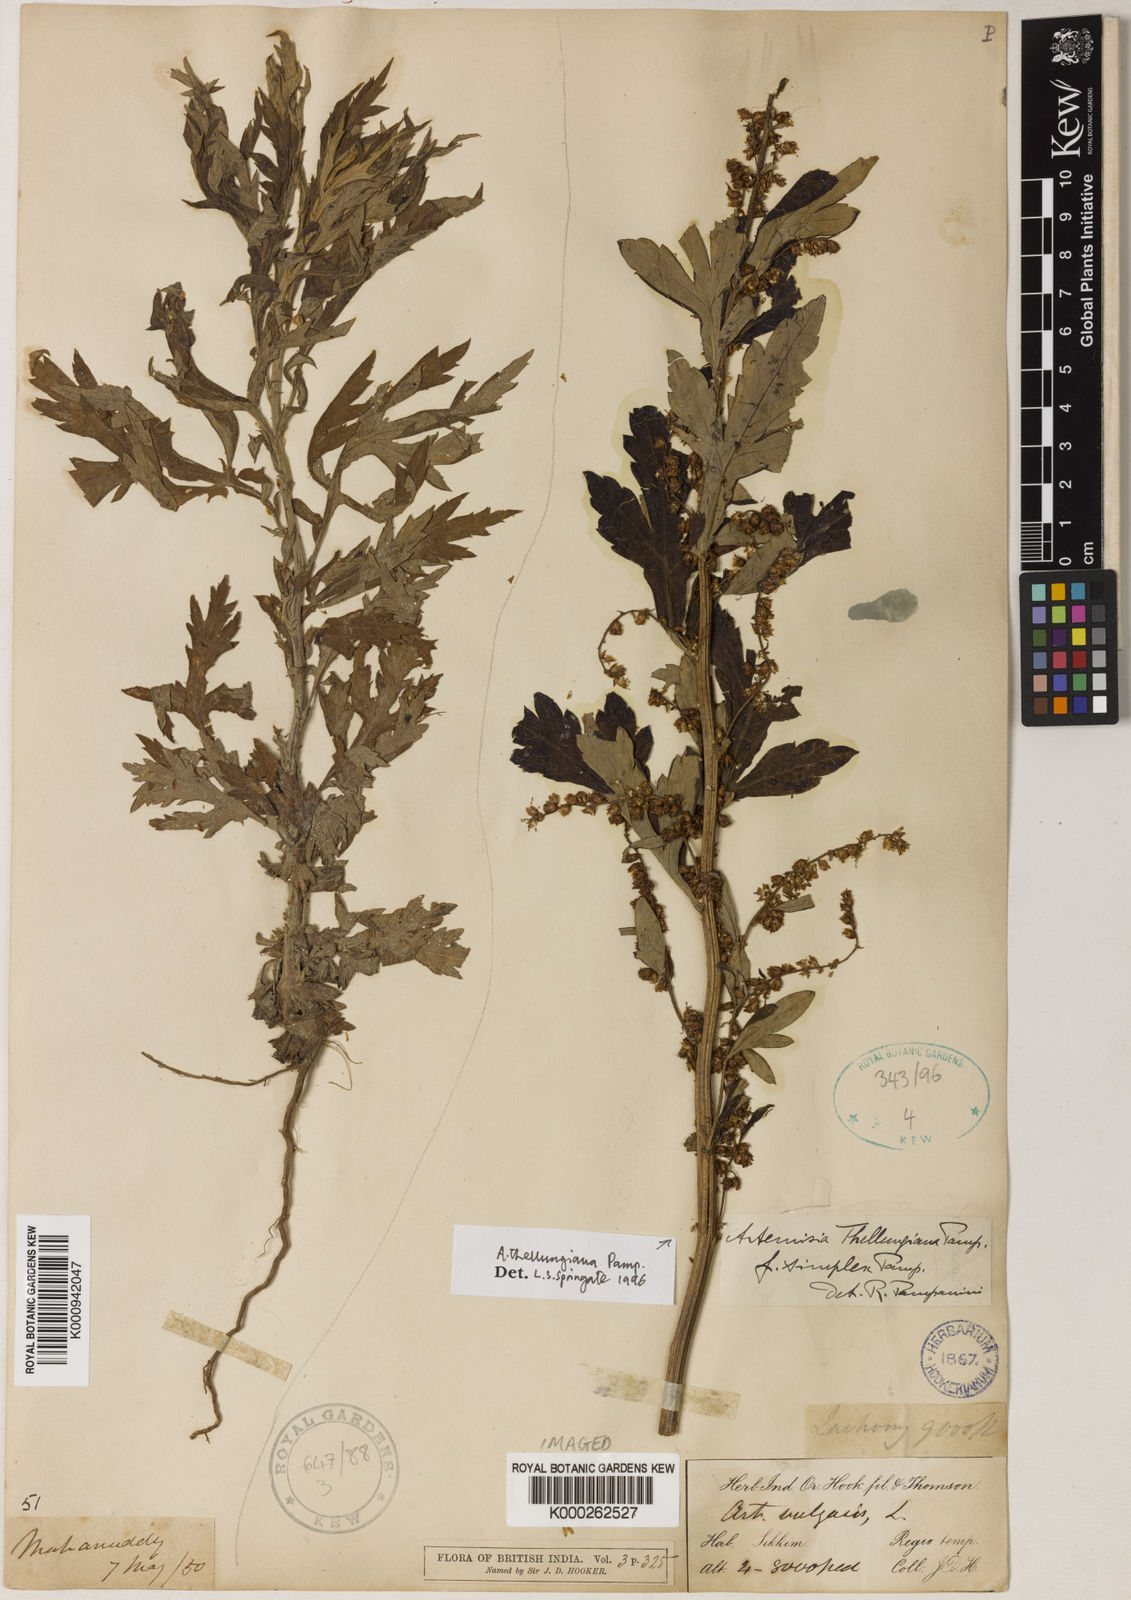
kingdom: Plantae
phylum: Tracheophyta
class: Magnoliopsida
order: Asterales
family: Asteraceae
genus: Artemisia
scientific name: Artemisia thellungiana
